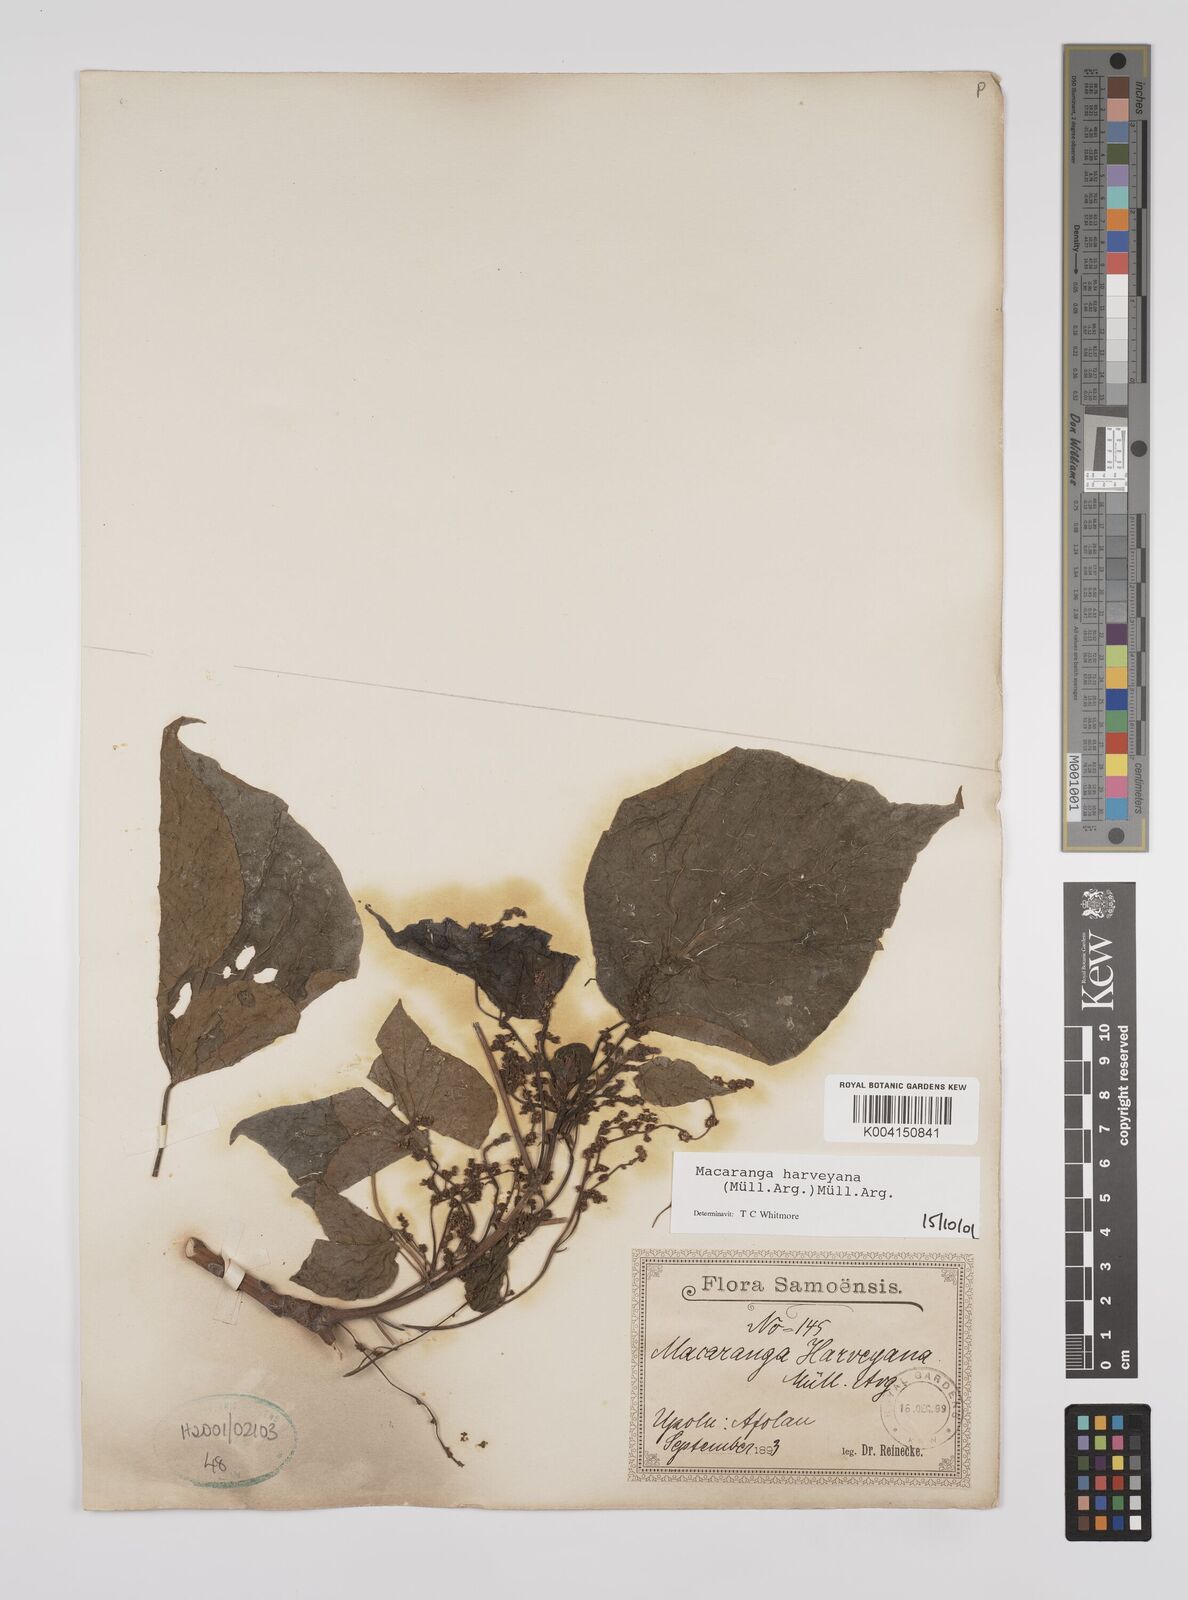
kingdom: Plantae
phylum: Tracheophyta
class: Magnoliopsida
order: Malpighiales
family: Euphorbiaceae
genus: Macaranga
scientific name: Macaranga harveyana
